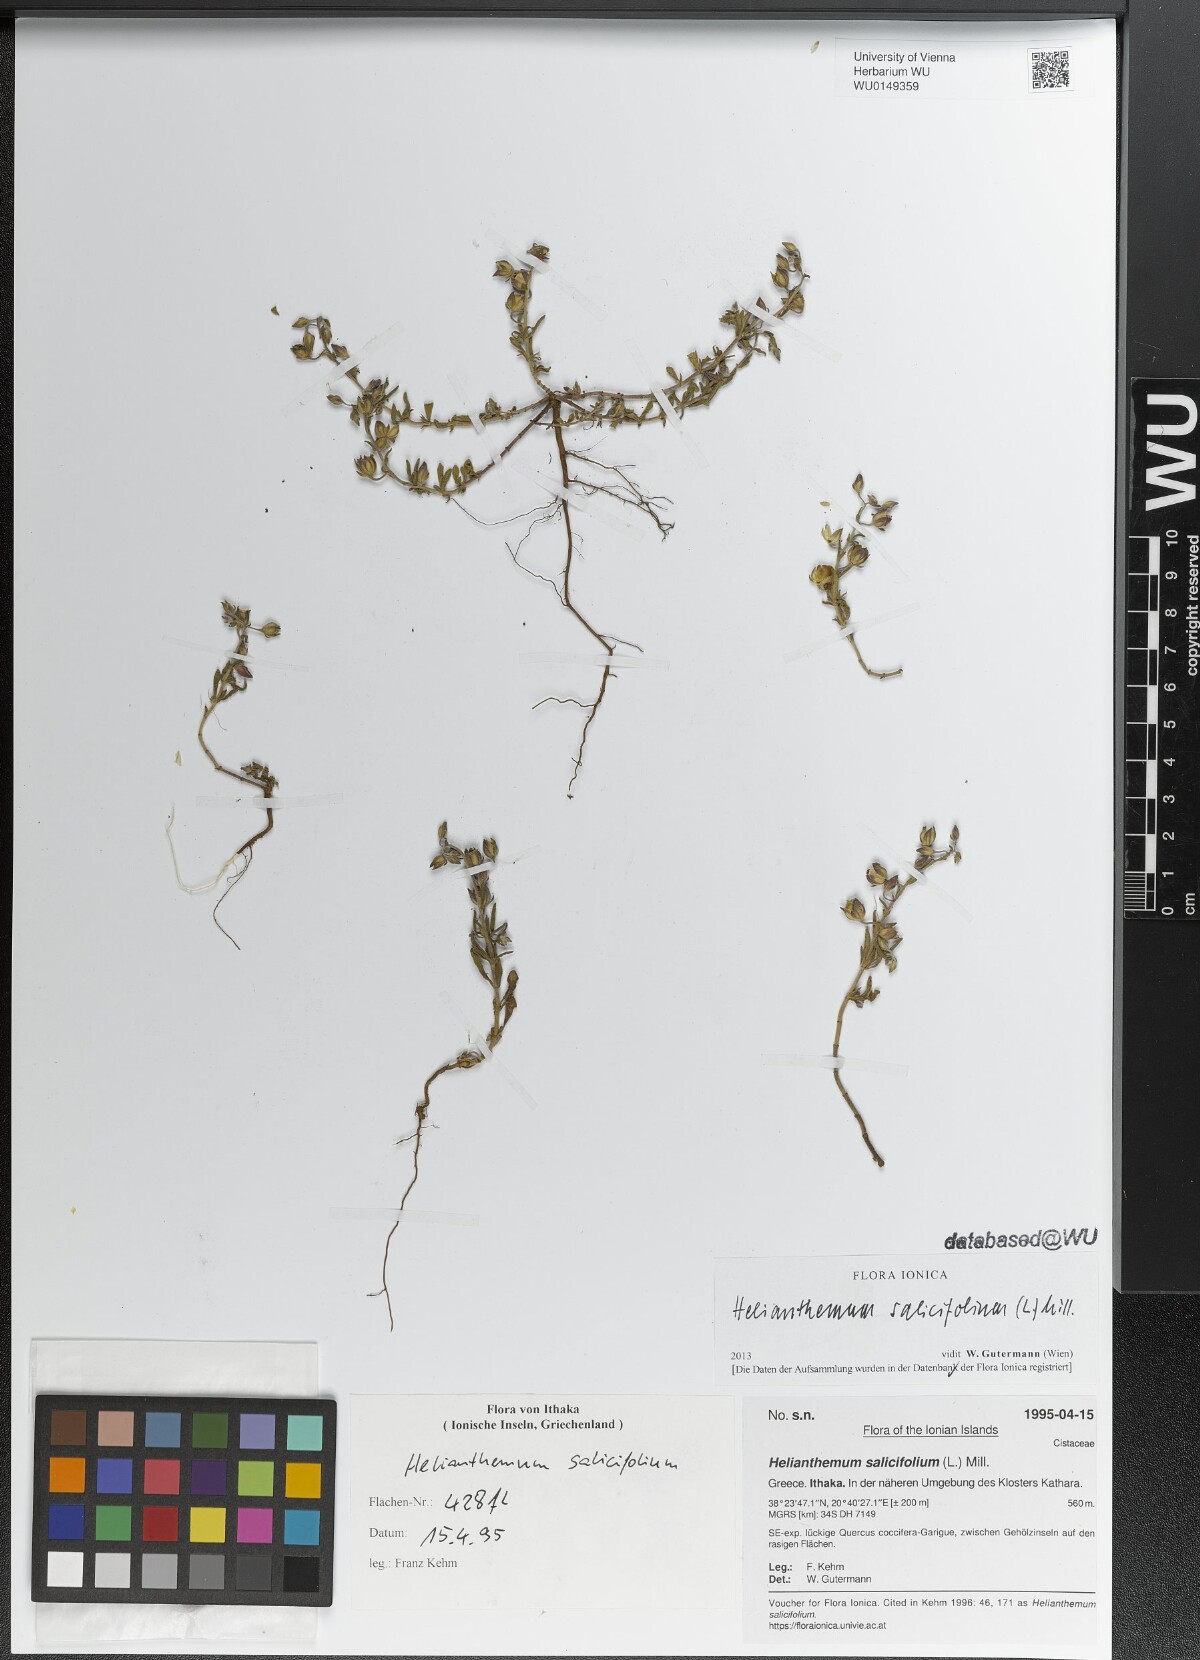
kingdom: Plantae
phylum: Tracheophyta
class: Magnoliopsida
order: Malvales
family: Cistaceae
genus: Helianthemum
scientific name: Helianthemum salicifolium
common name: Willowleaf frostweed
